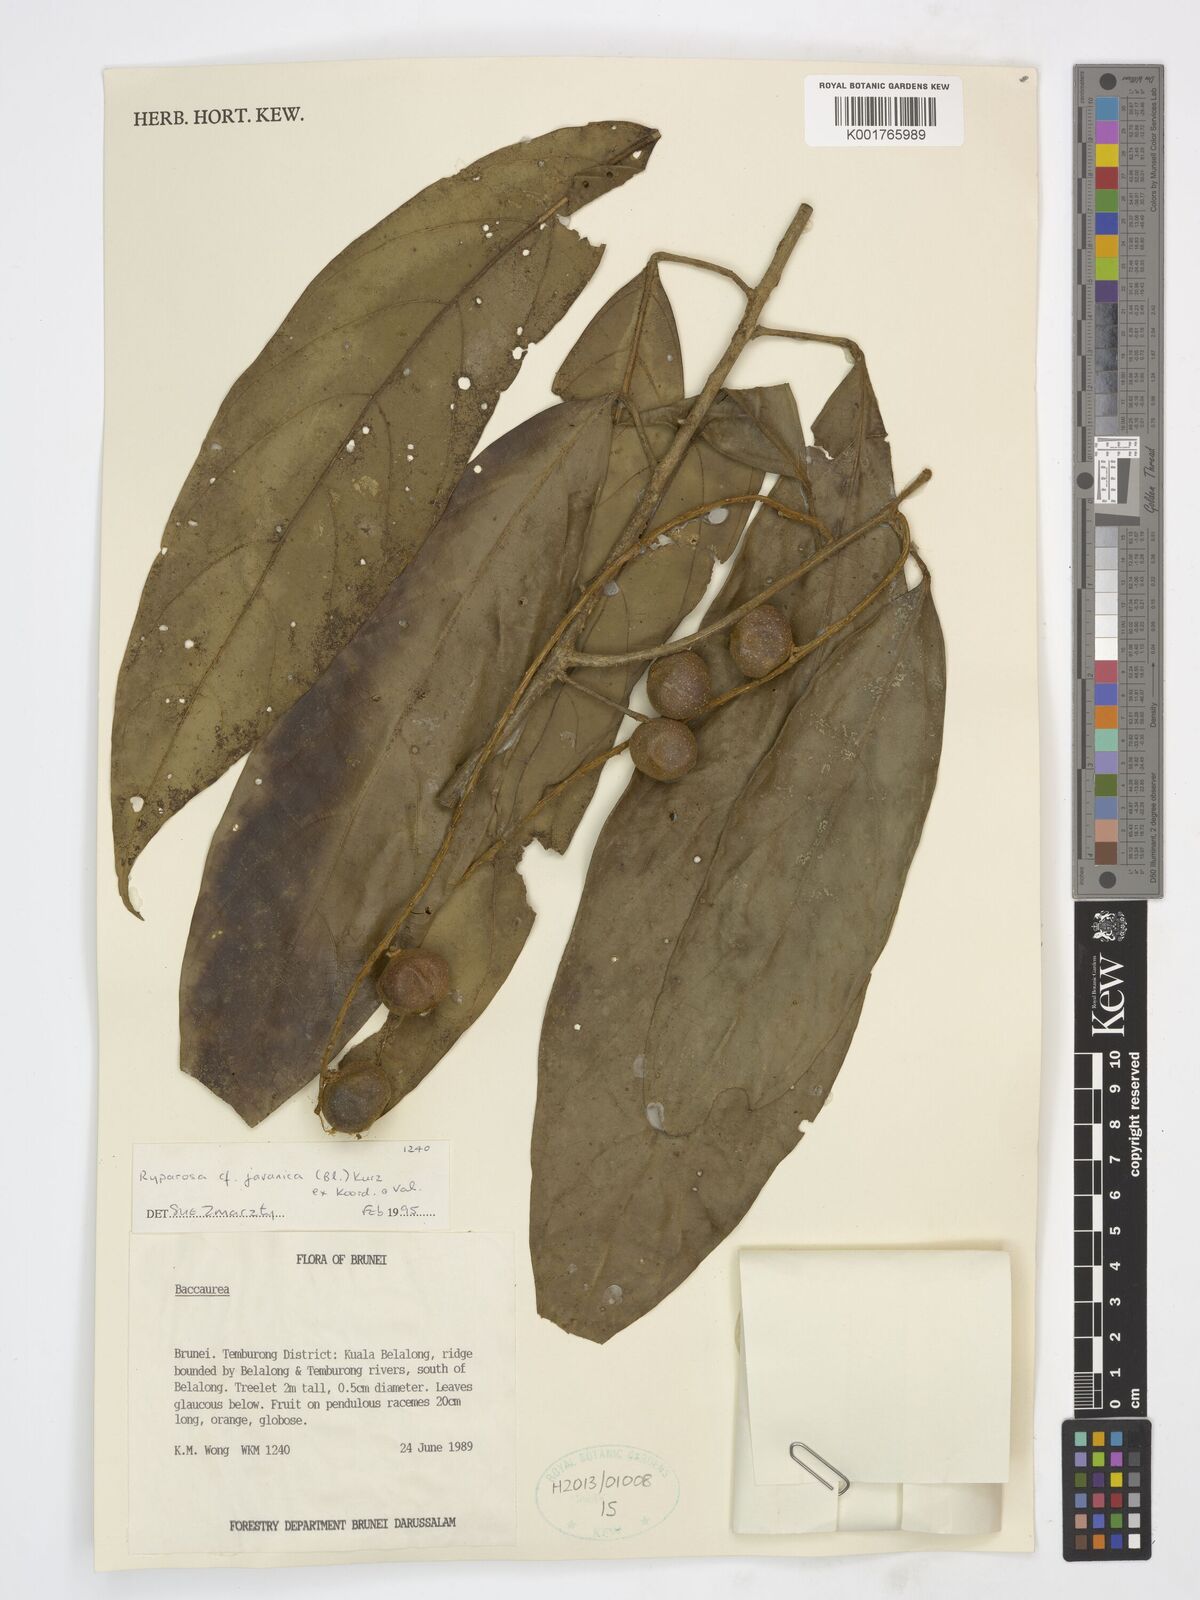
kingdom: Plantae
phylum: Tracheophyta
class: Magnoliopsida
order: Malpighiales
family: Achariaceae
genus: Ryparosa
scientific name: Ryparosa javanica
